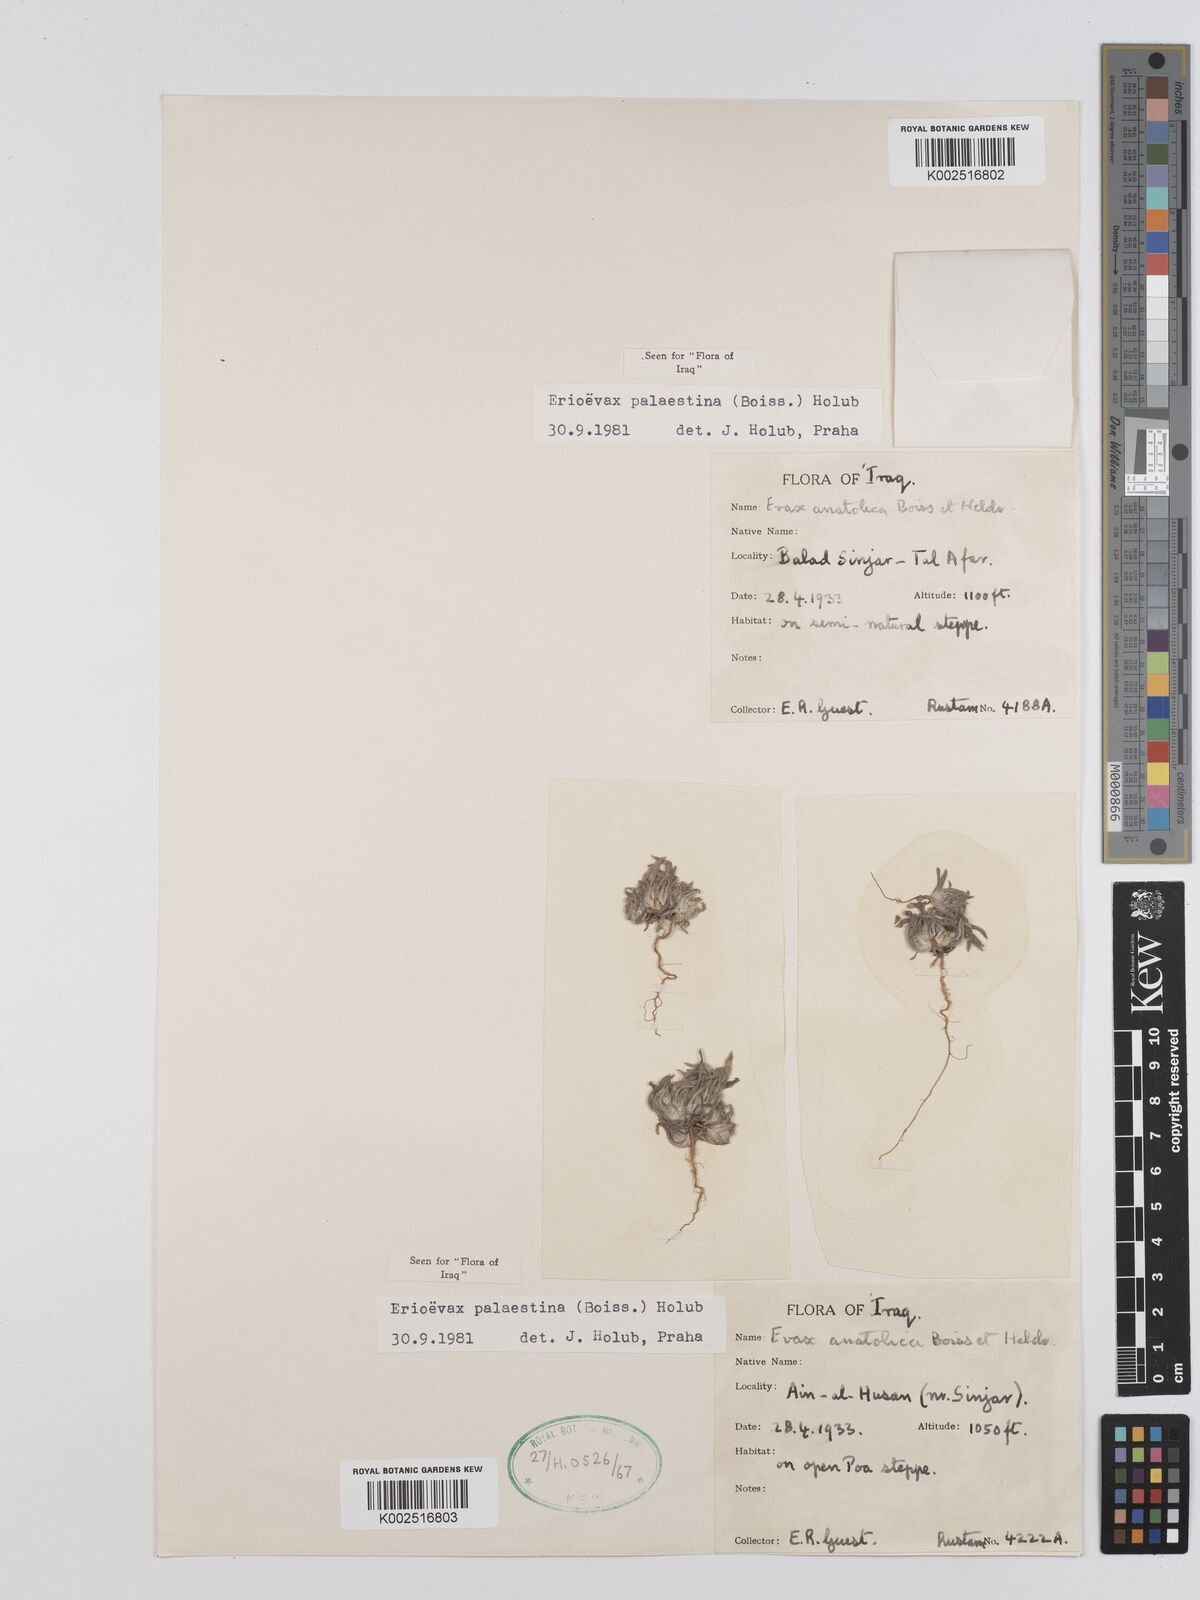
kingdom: Plantae
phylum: Tracheophyta
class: Magnoliopsida
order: Asterales
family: Asteraceae
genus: Filago
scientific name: Filago palaestina
